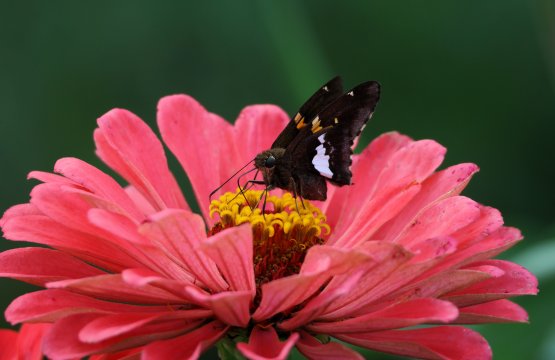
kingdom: Animalia
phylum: Arthropoda
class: Insecta
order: Lepidoptera
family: Hesperiidae
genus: Epargyreus
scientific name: Epargyreus clarus
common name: Silver-spotted Skipper
